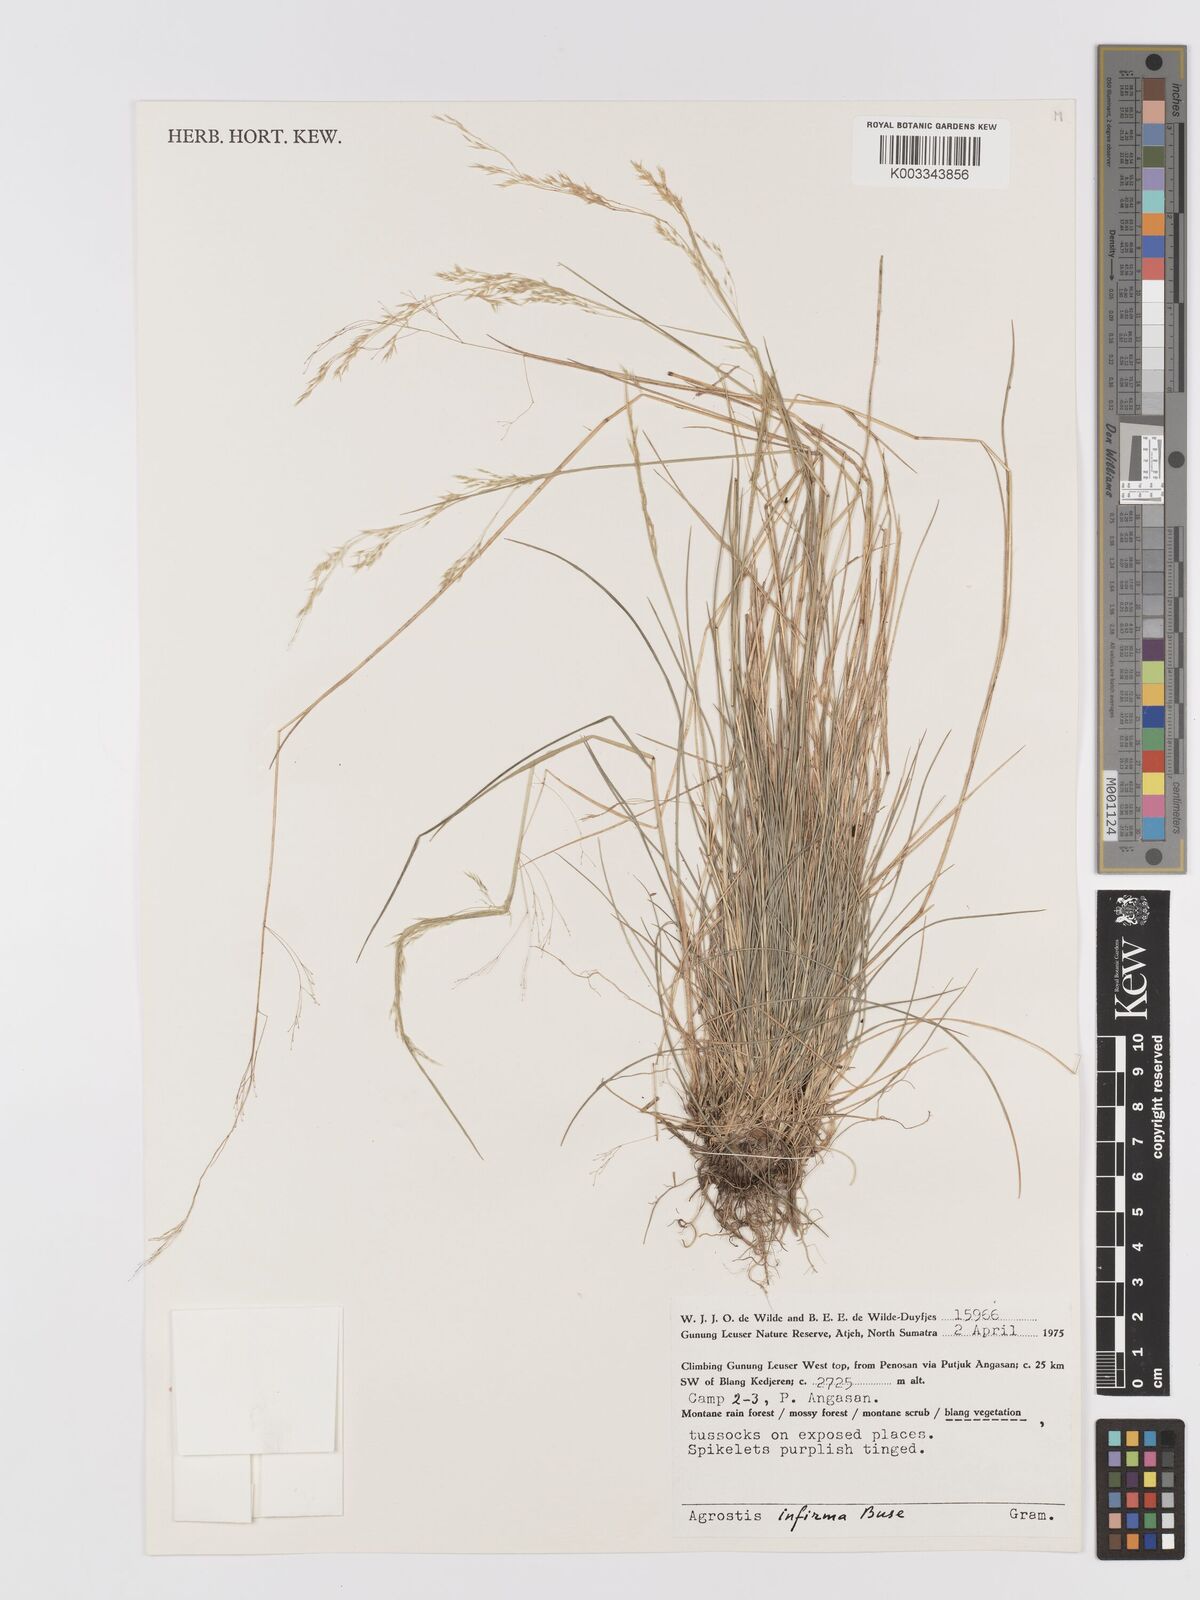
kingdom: Plantae
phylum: Tracheophyta
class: Liliopsida
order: Poales
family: Poaceae
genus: Agrostis
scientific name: Agrostis infirma
